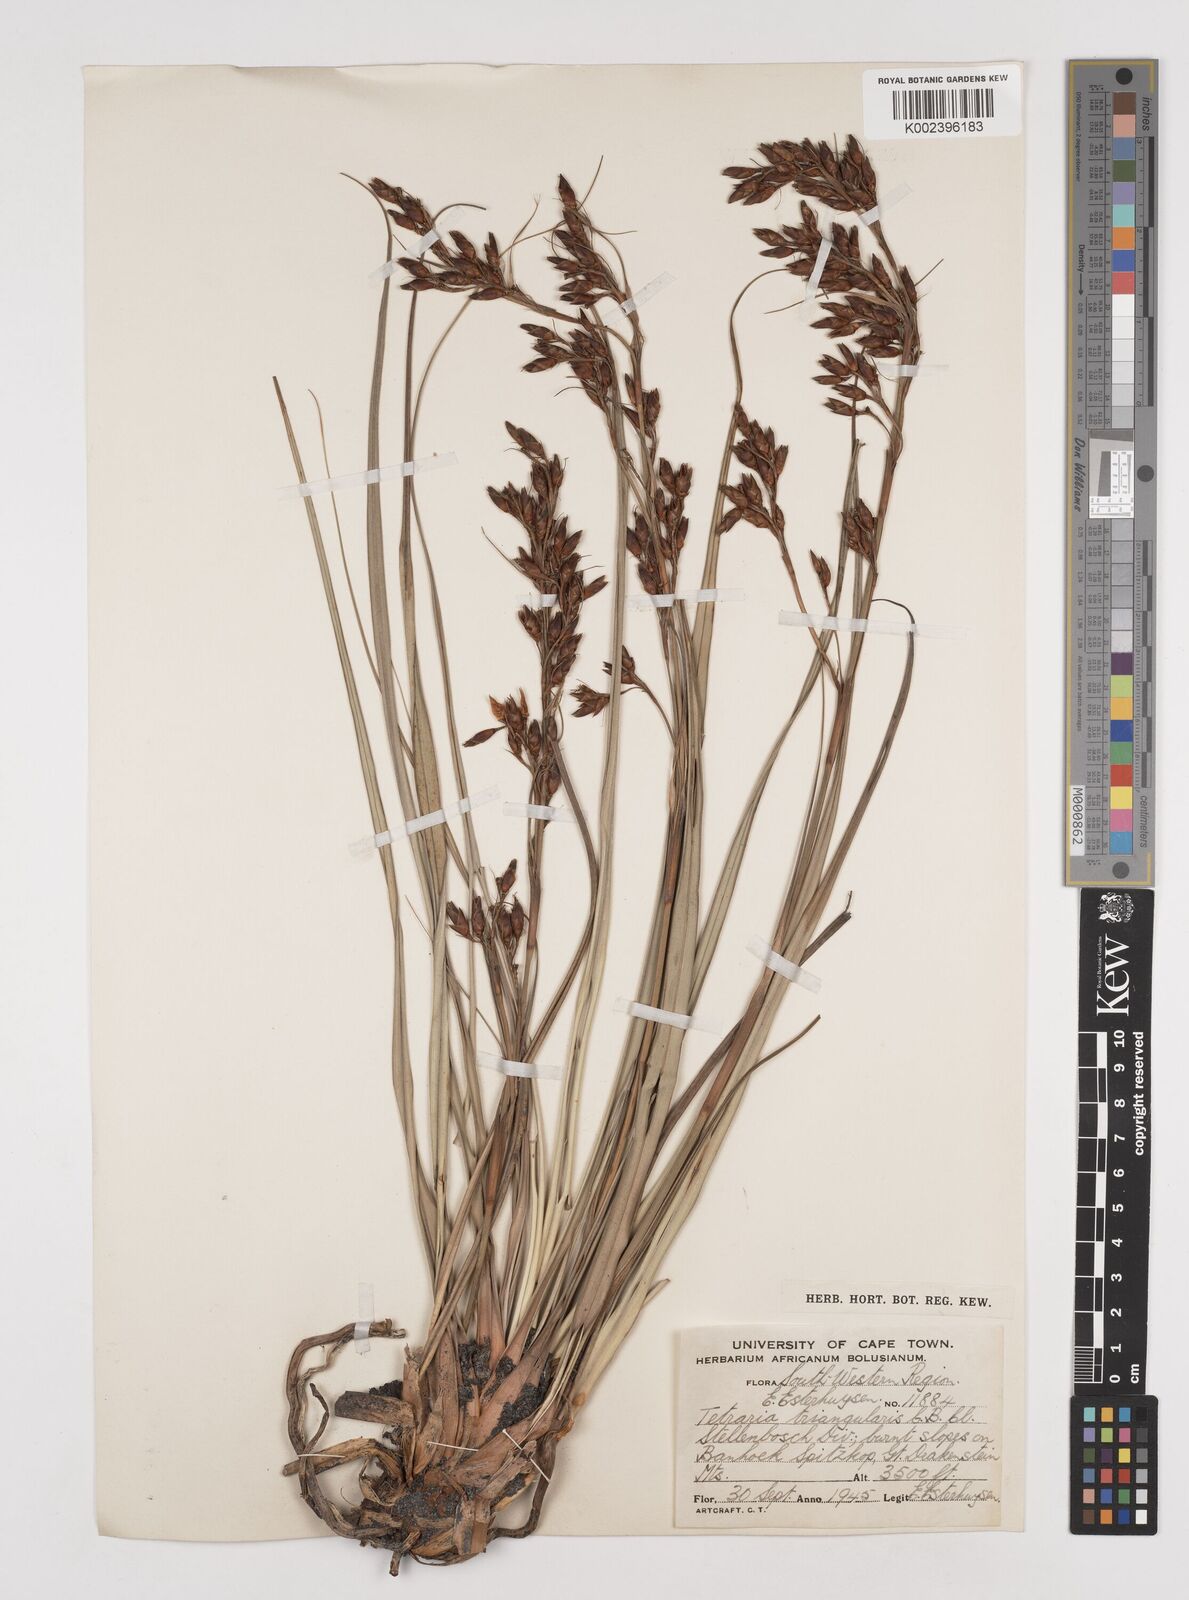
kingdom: Plantae
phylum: Tracheophyta
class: Liliopsida
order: Poales
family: Cyperaceae
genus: Tetraria
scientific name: Tetraria triangularis
